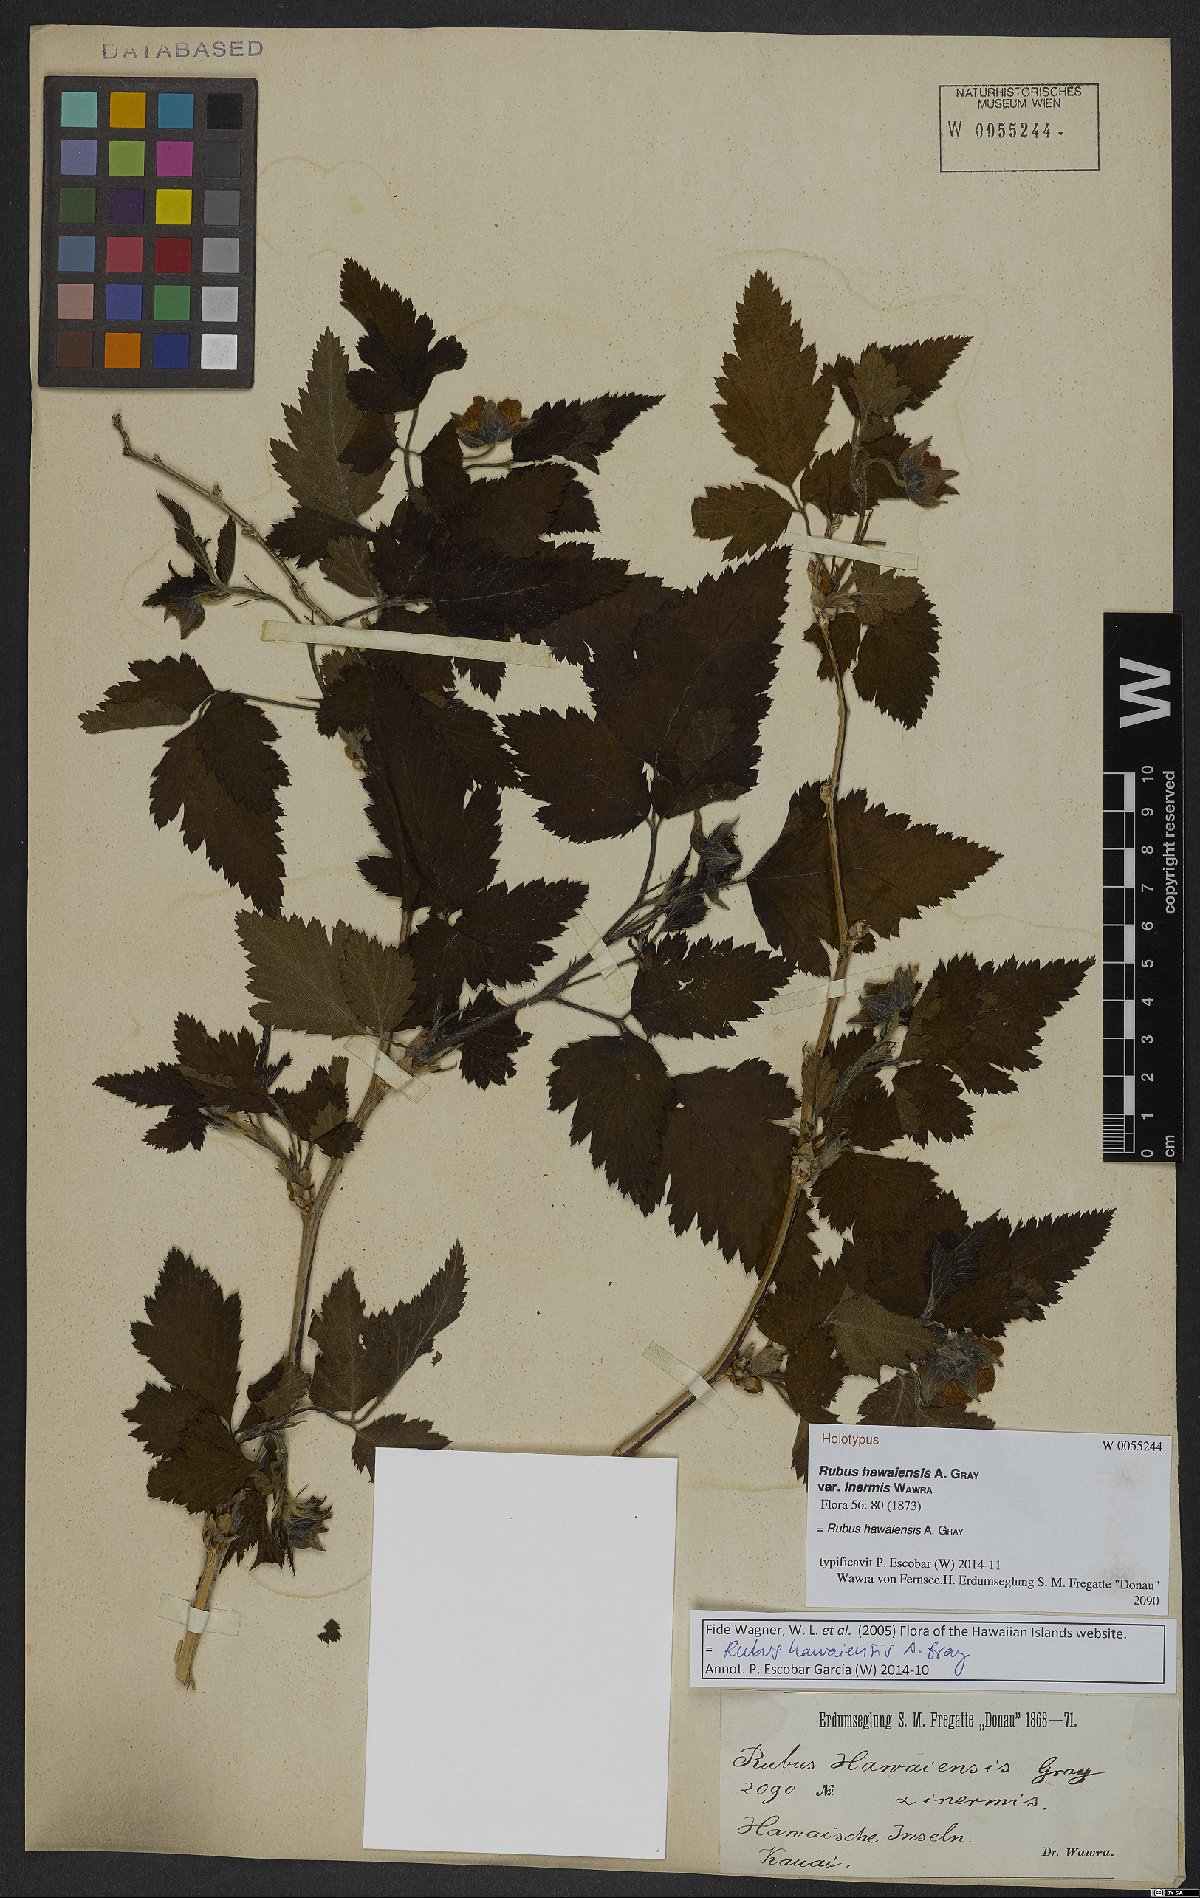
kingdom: Plantae
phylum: Tracheophyta
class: Magnoliopsida
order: Rosales
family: Rosaceae
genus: Rubus
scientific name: Rubus hawaiensis
